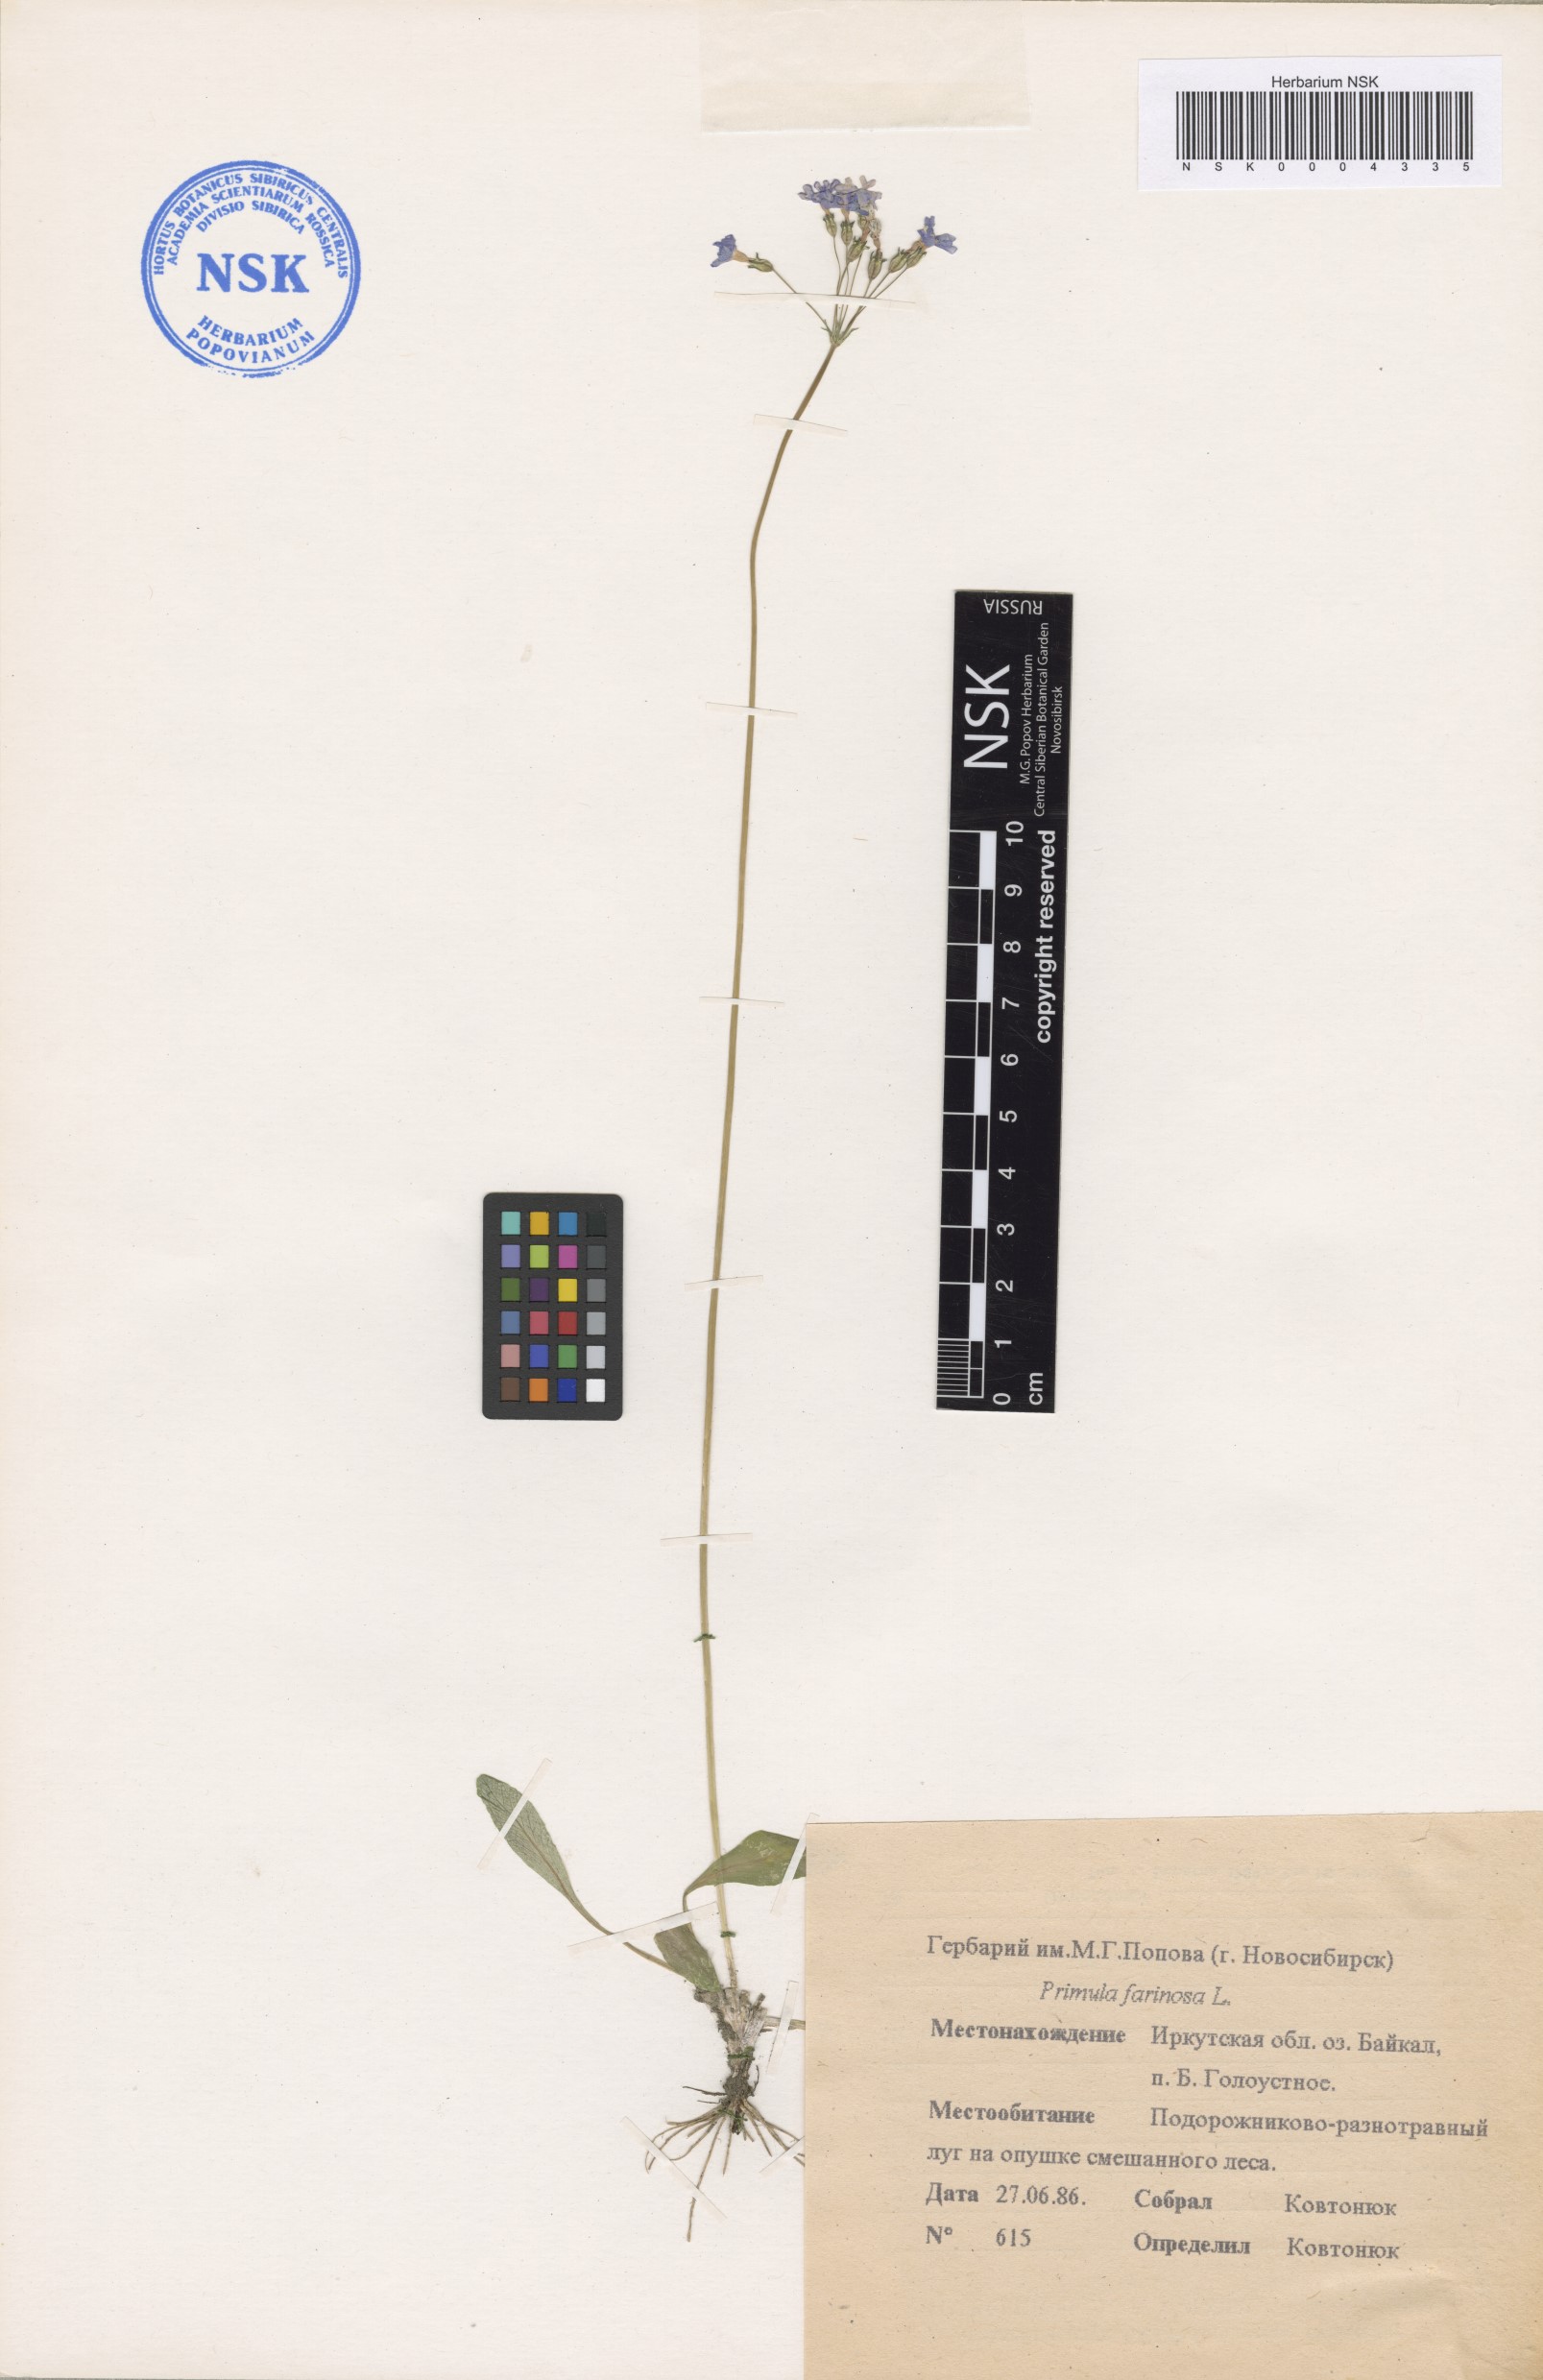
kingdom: Plantae
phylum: Tracheophyta
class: Magnoliopsida
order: Ericales
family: Primulaceae
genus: Primula
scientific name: Primula farinosa
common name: Bird's-eye primrose
